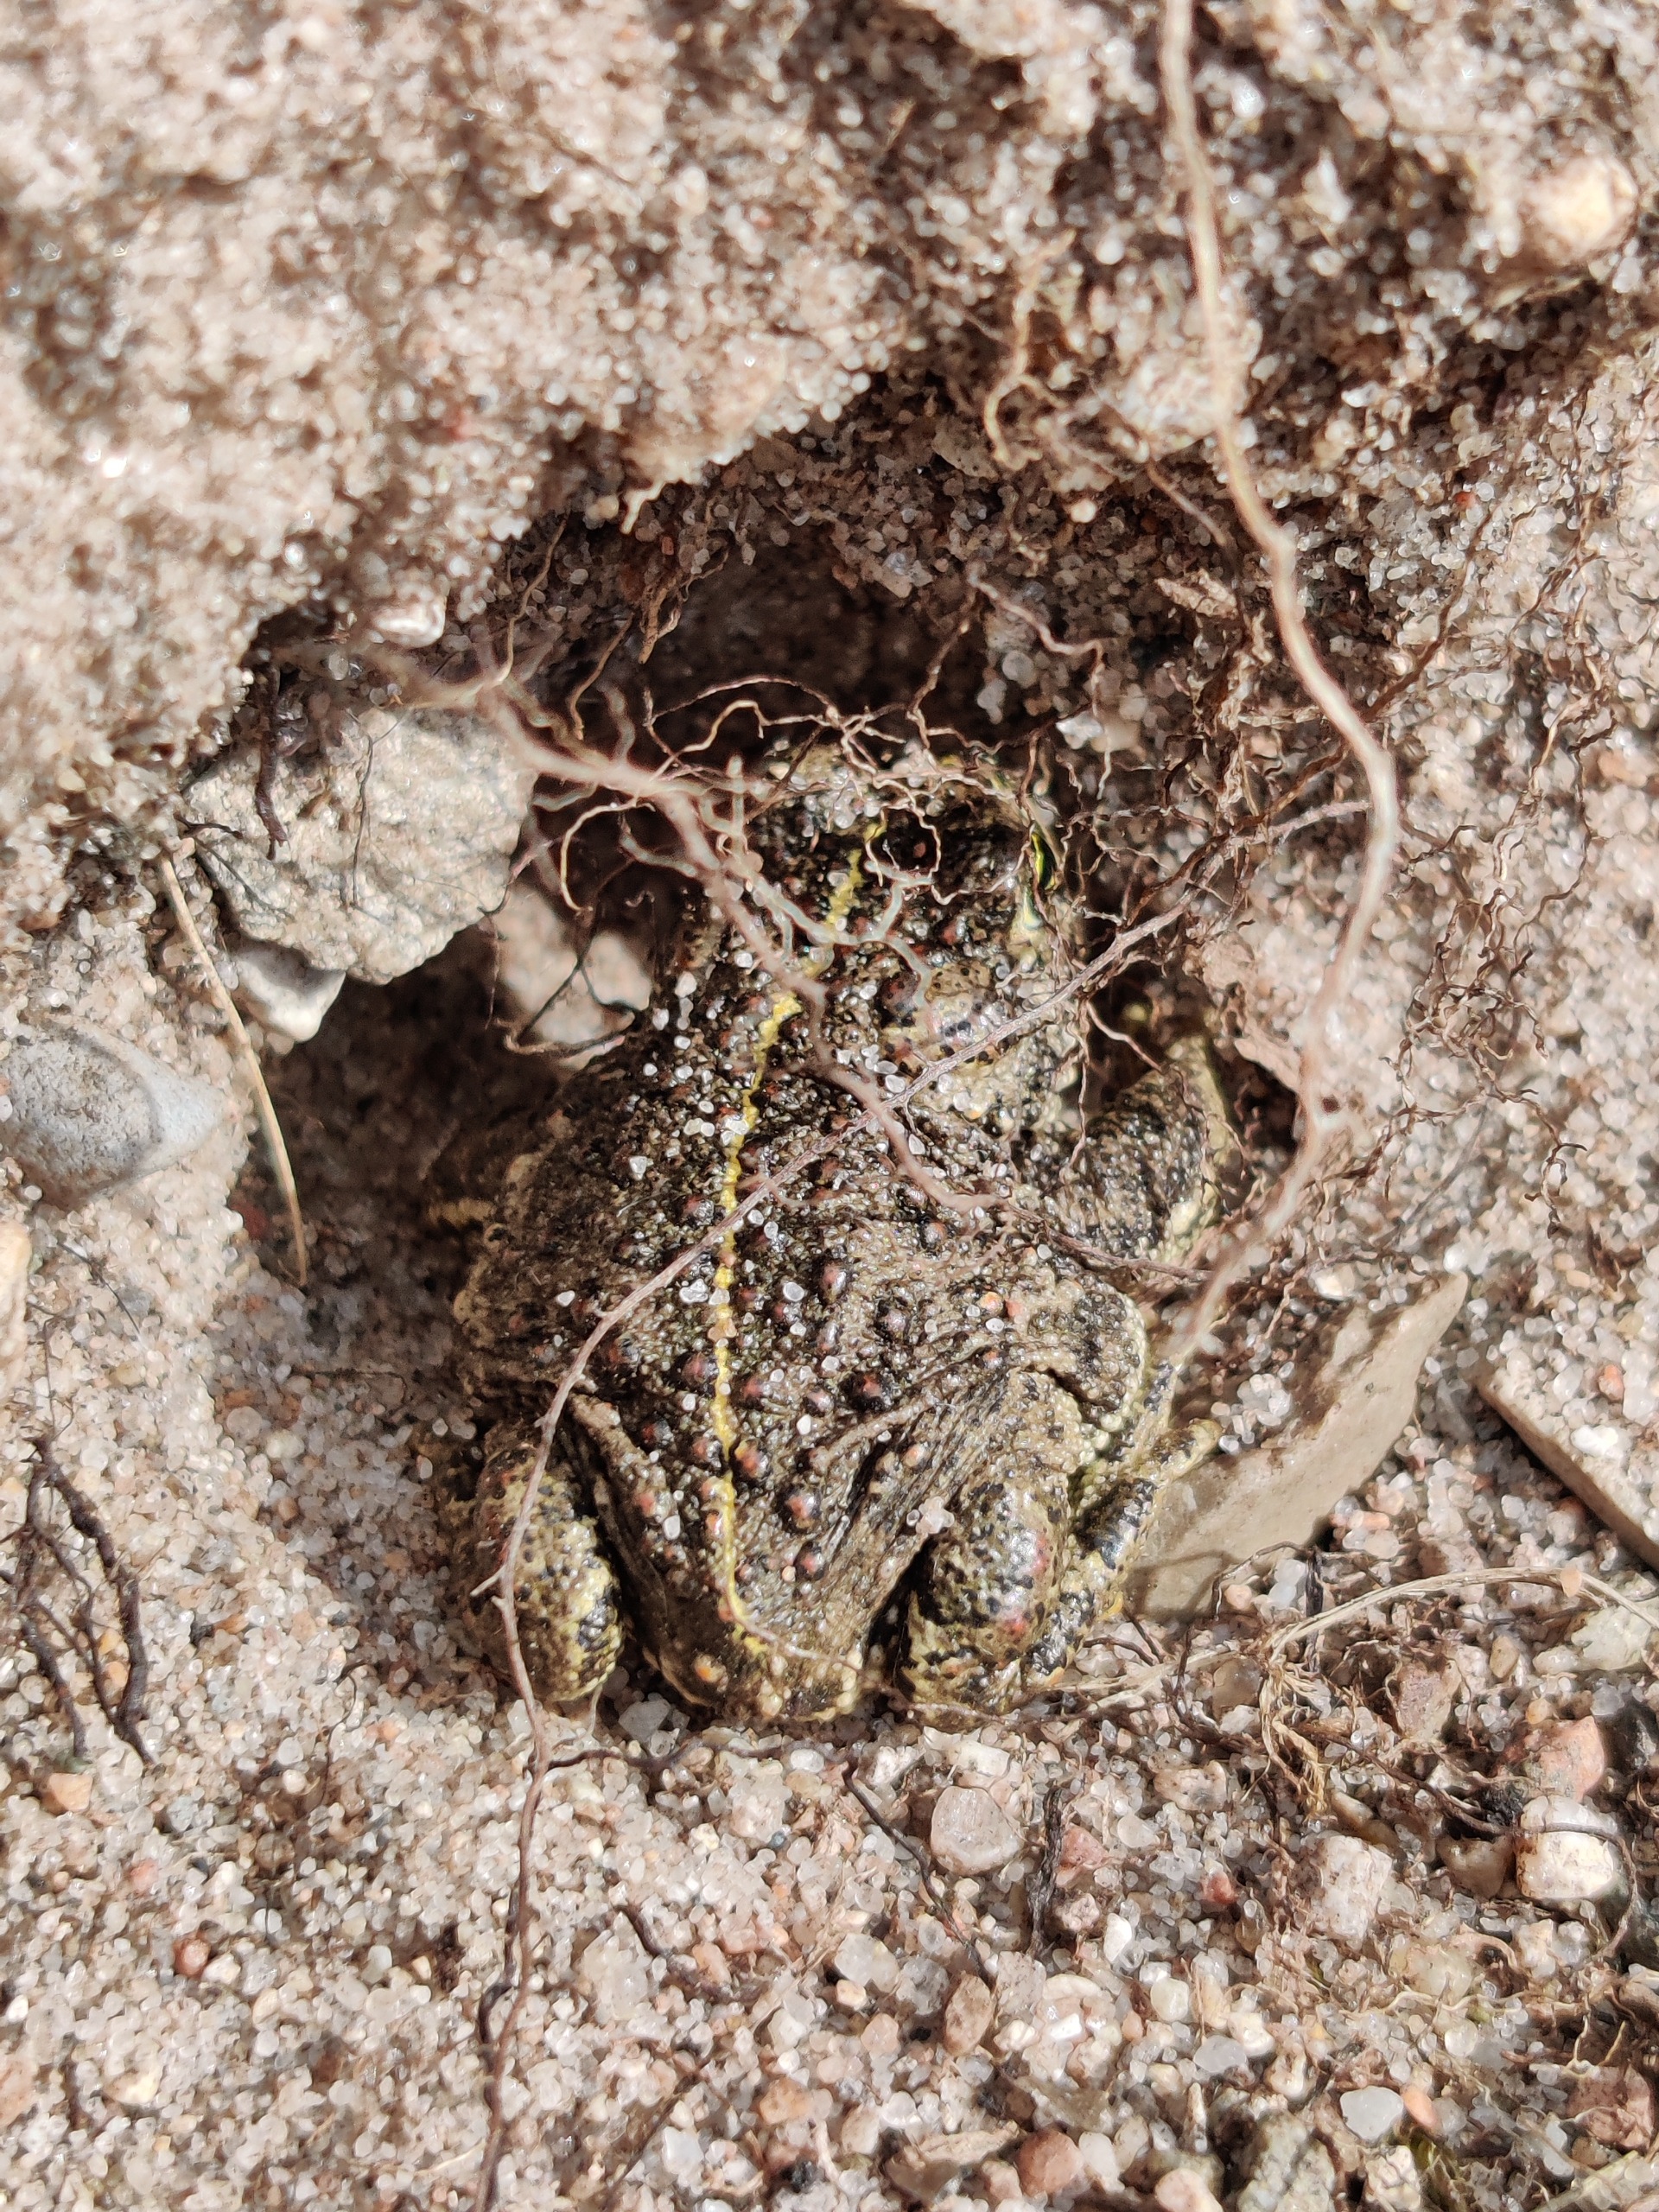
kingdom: Animalia
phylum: Chordata
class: Amphibia
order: Anura
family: Bufonidae
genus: Epidalea
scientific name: Epidalea calamita
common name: Strandtudse
